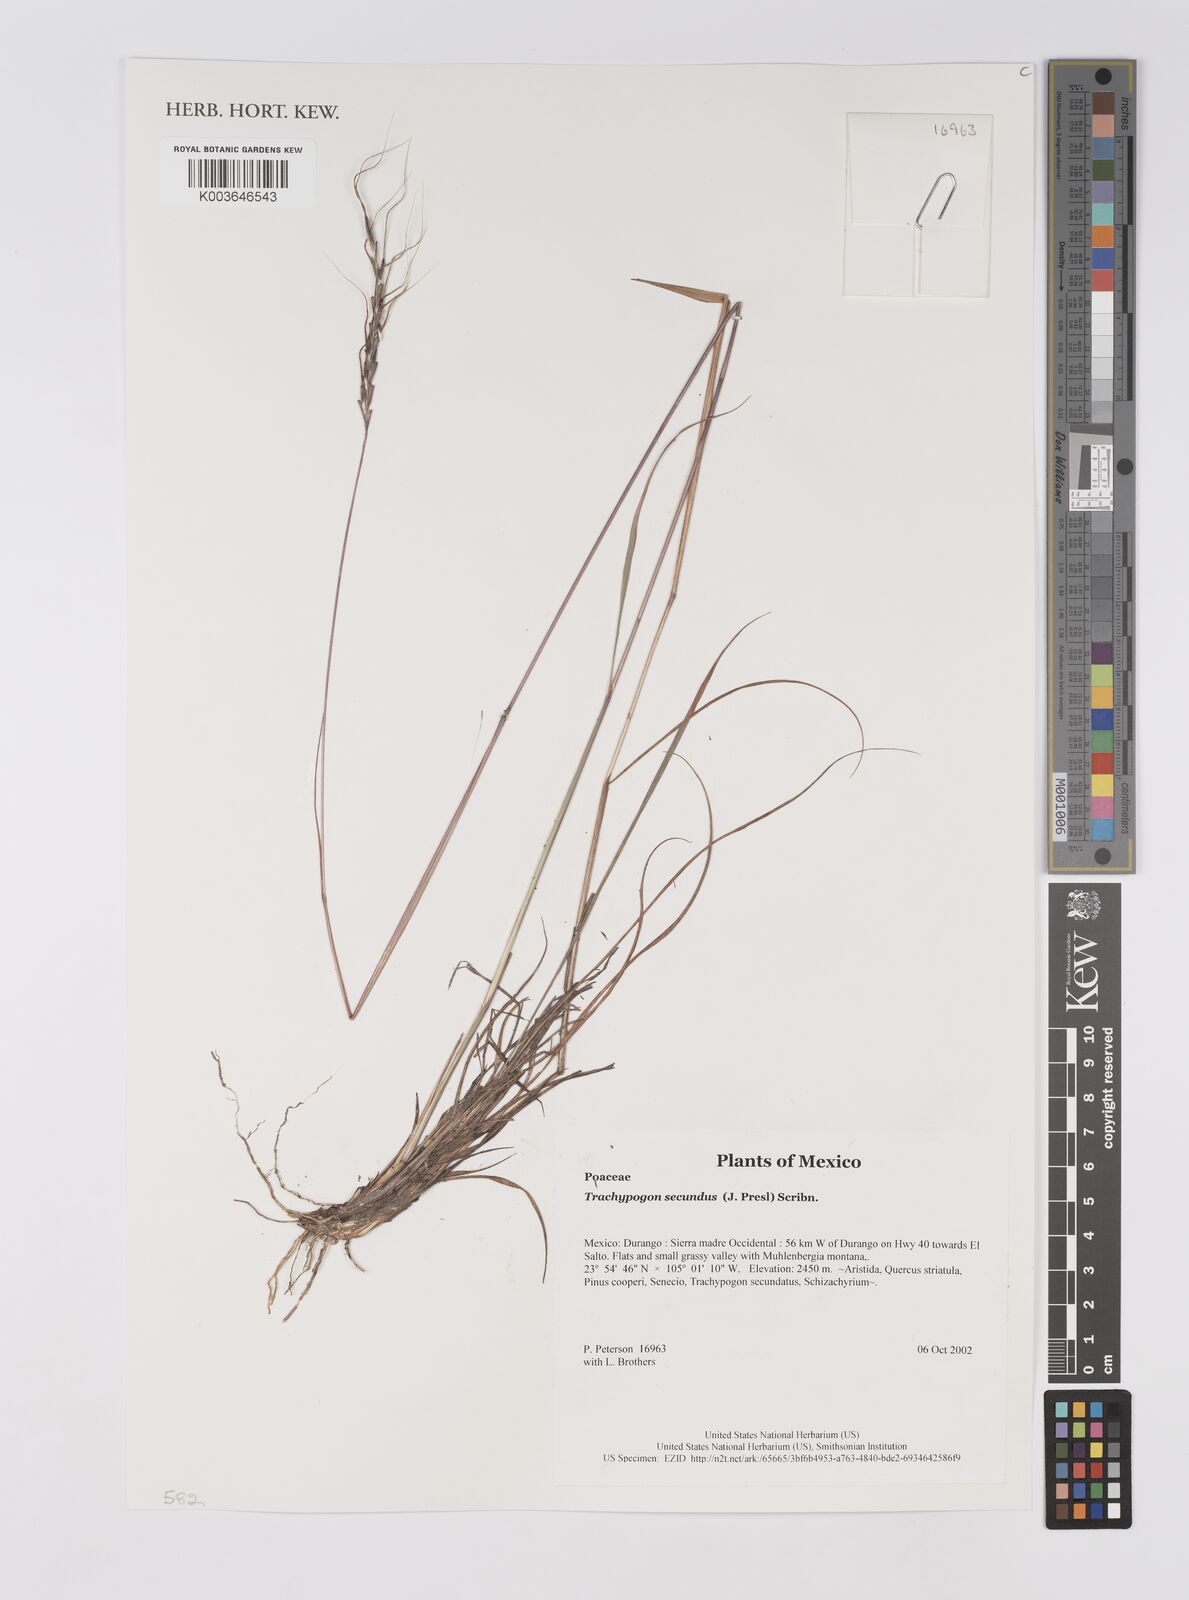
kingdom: Plantae
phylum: Tracheophyta
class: Liliopsida
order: Poales
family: Poaceae
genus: Trachypogon
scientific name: Trachypogon spicatus
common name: Crinkle-awn
